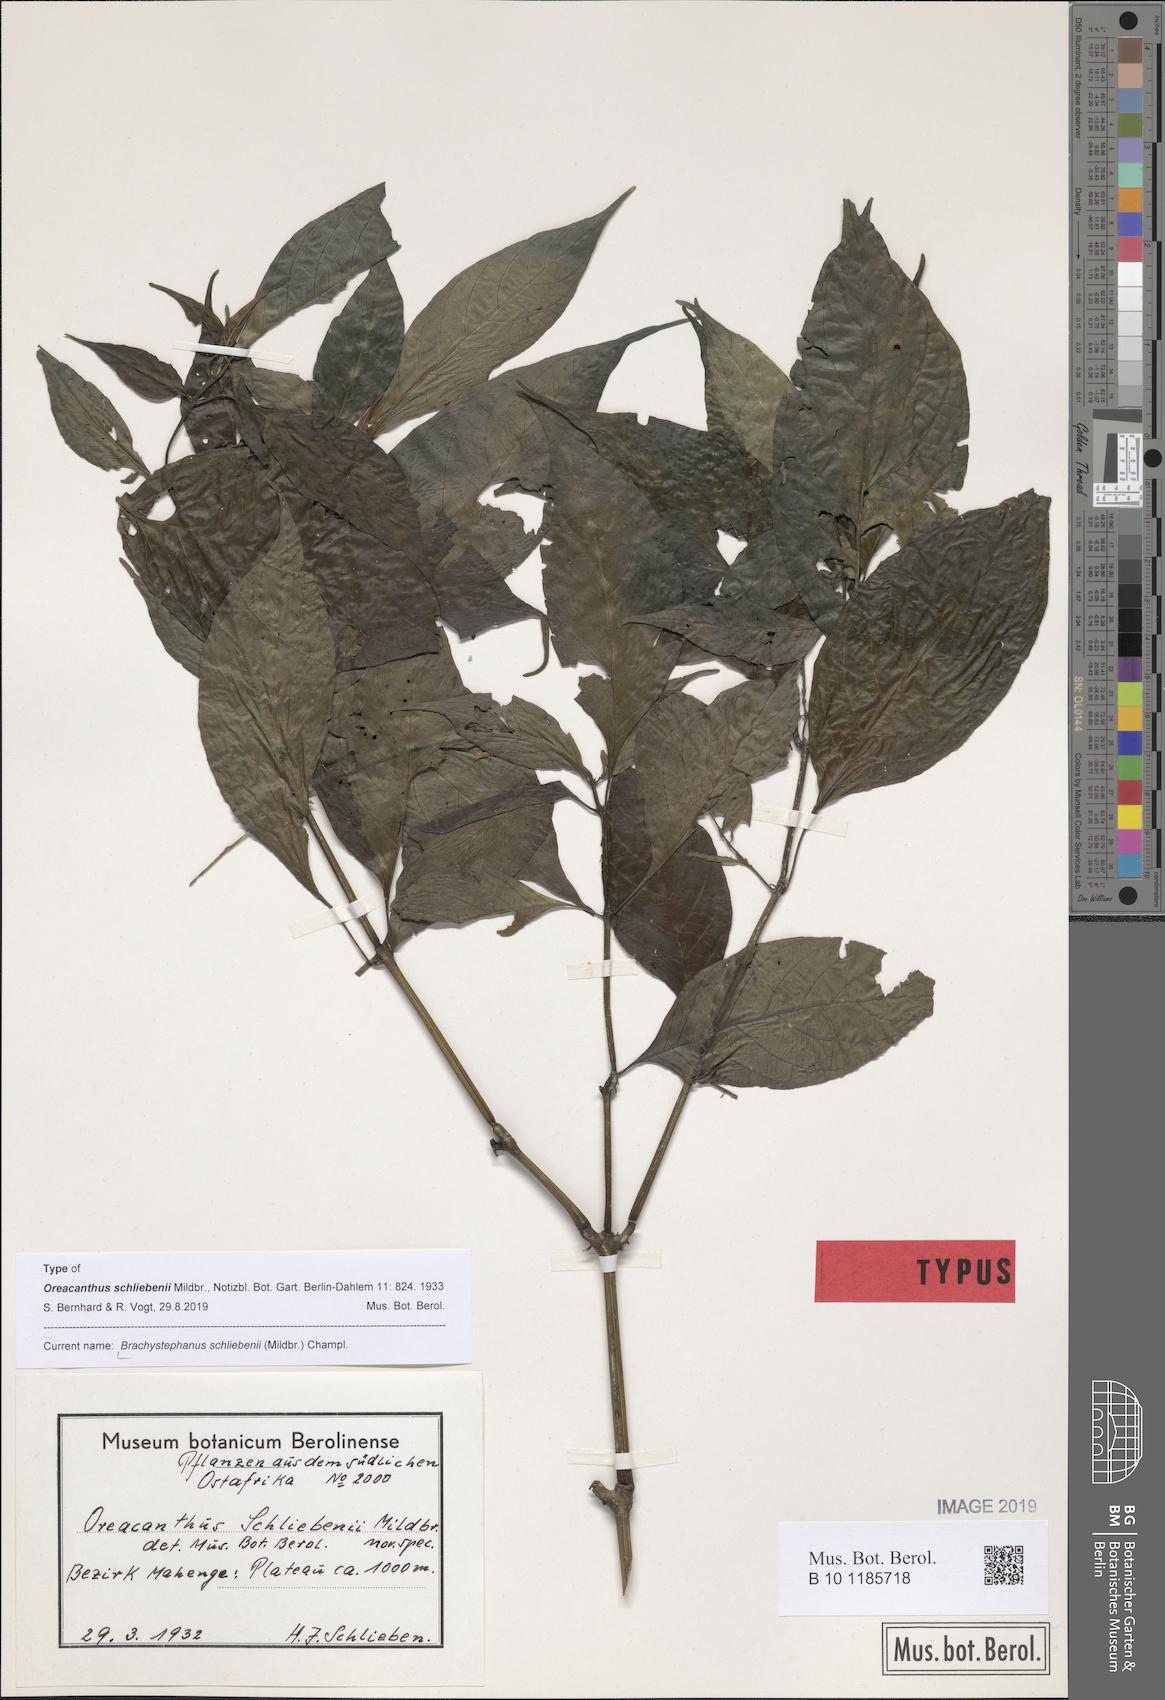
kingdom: Plantae
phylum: Tracheophyta
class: Magnoliopsida
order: Lamiales
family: Acanthaceae
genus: Brachystephanus
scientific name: Brachystephanus schliebenii
